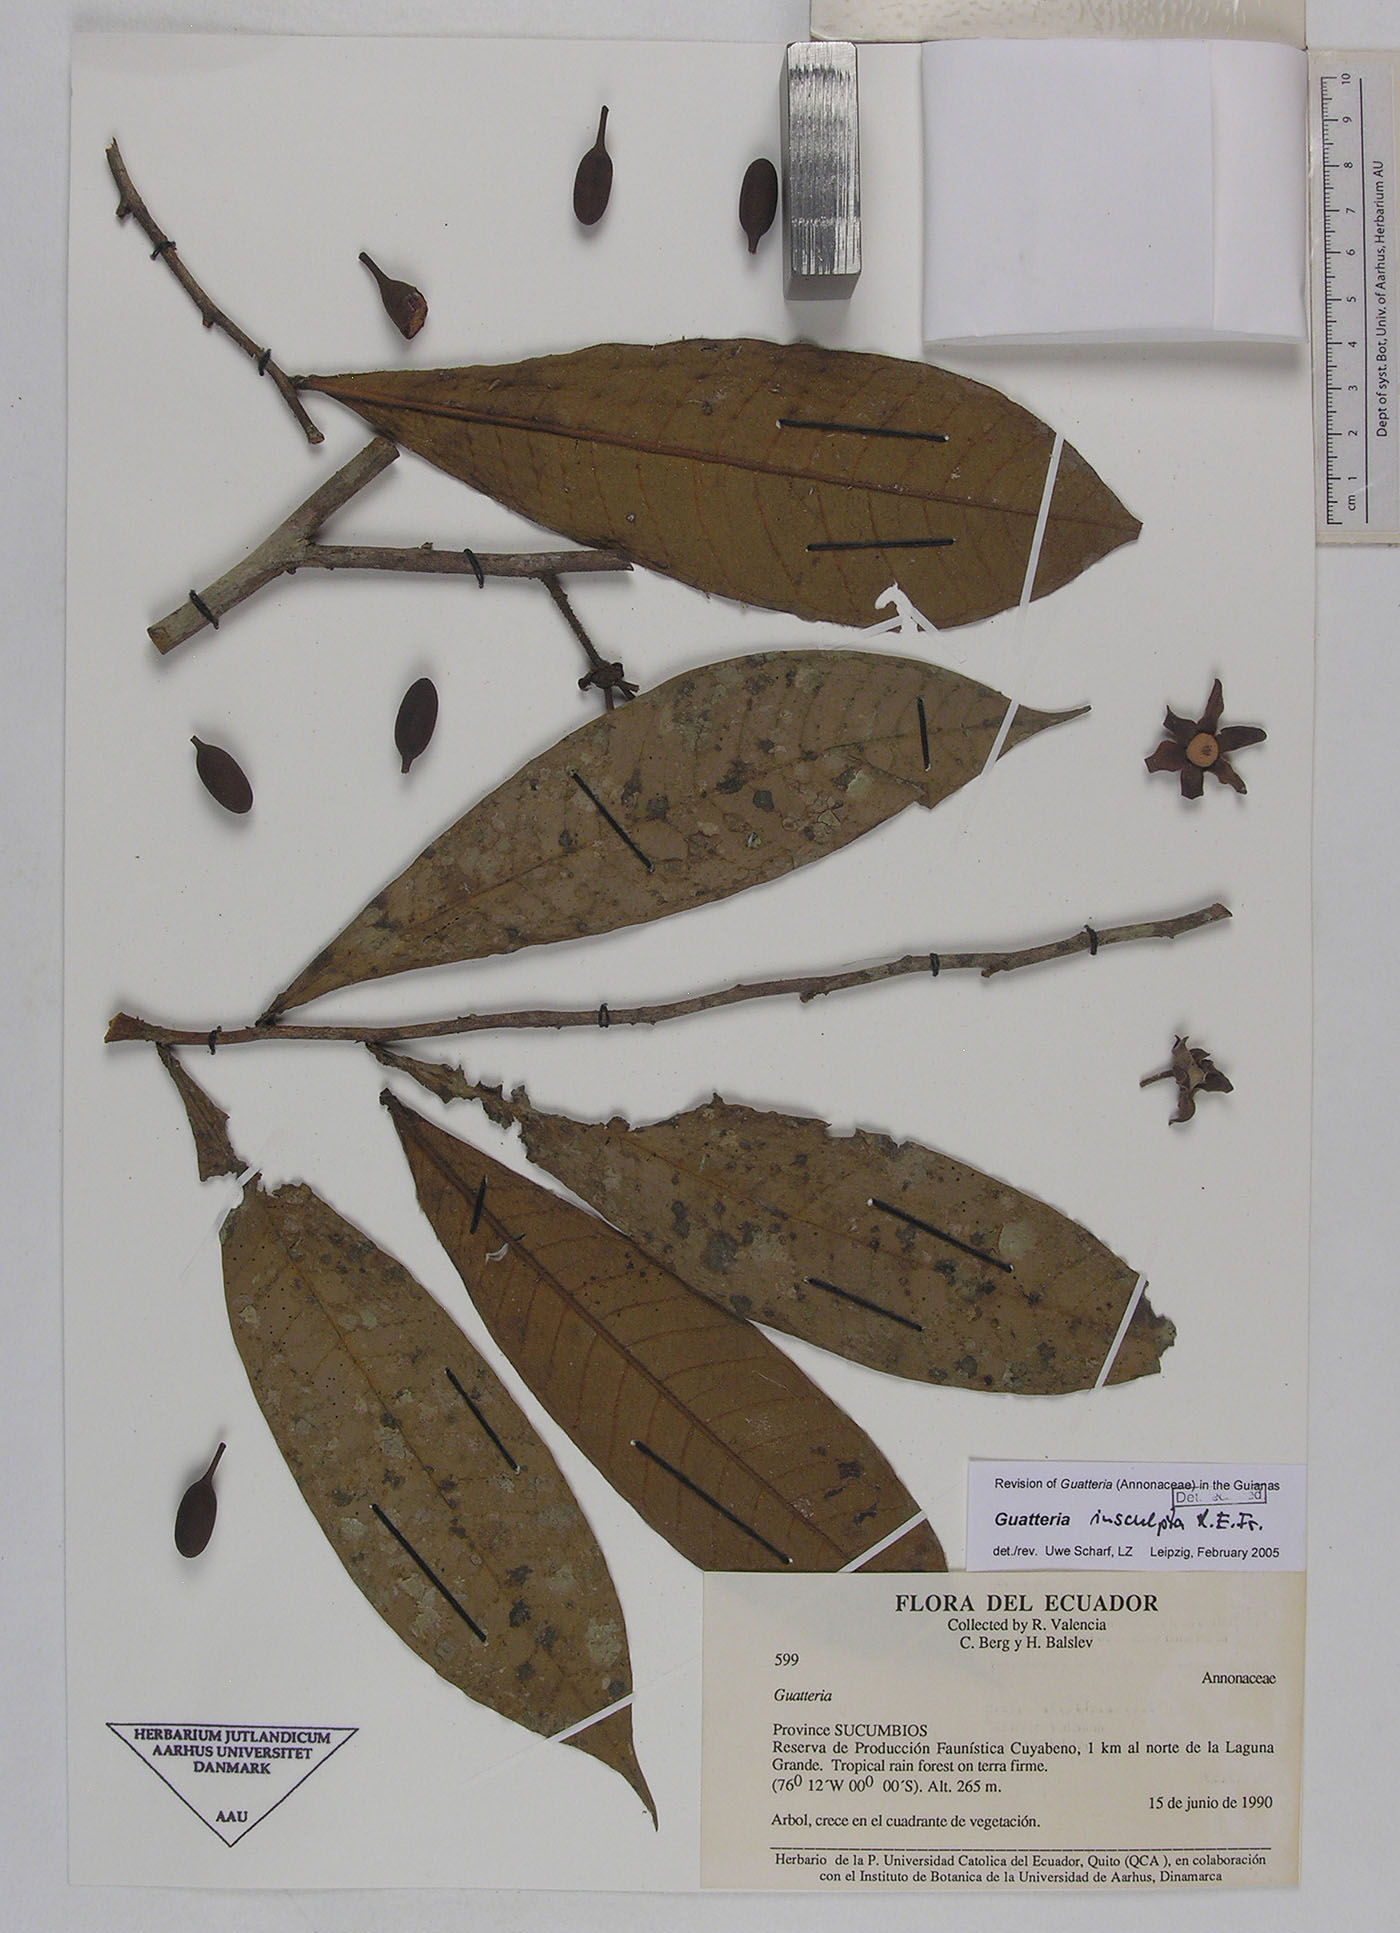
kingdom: Plantae
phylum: Tracheophyta
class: Magnoliopsida
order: Magnoliales
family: Annonaceae
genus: Guatteria
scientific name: Guatteria decurrens
